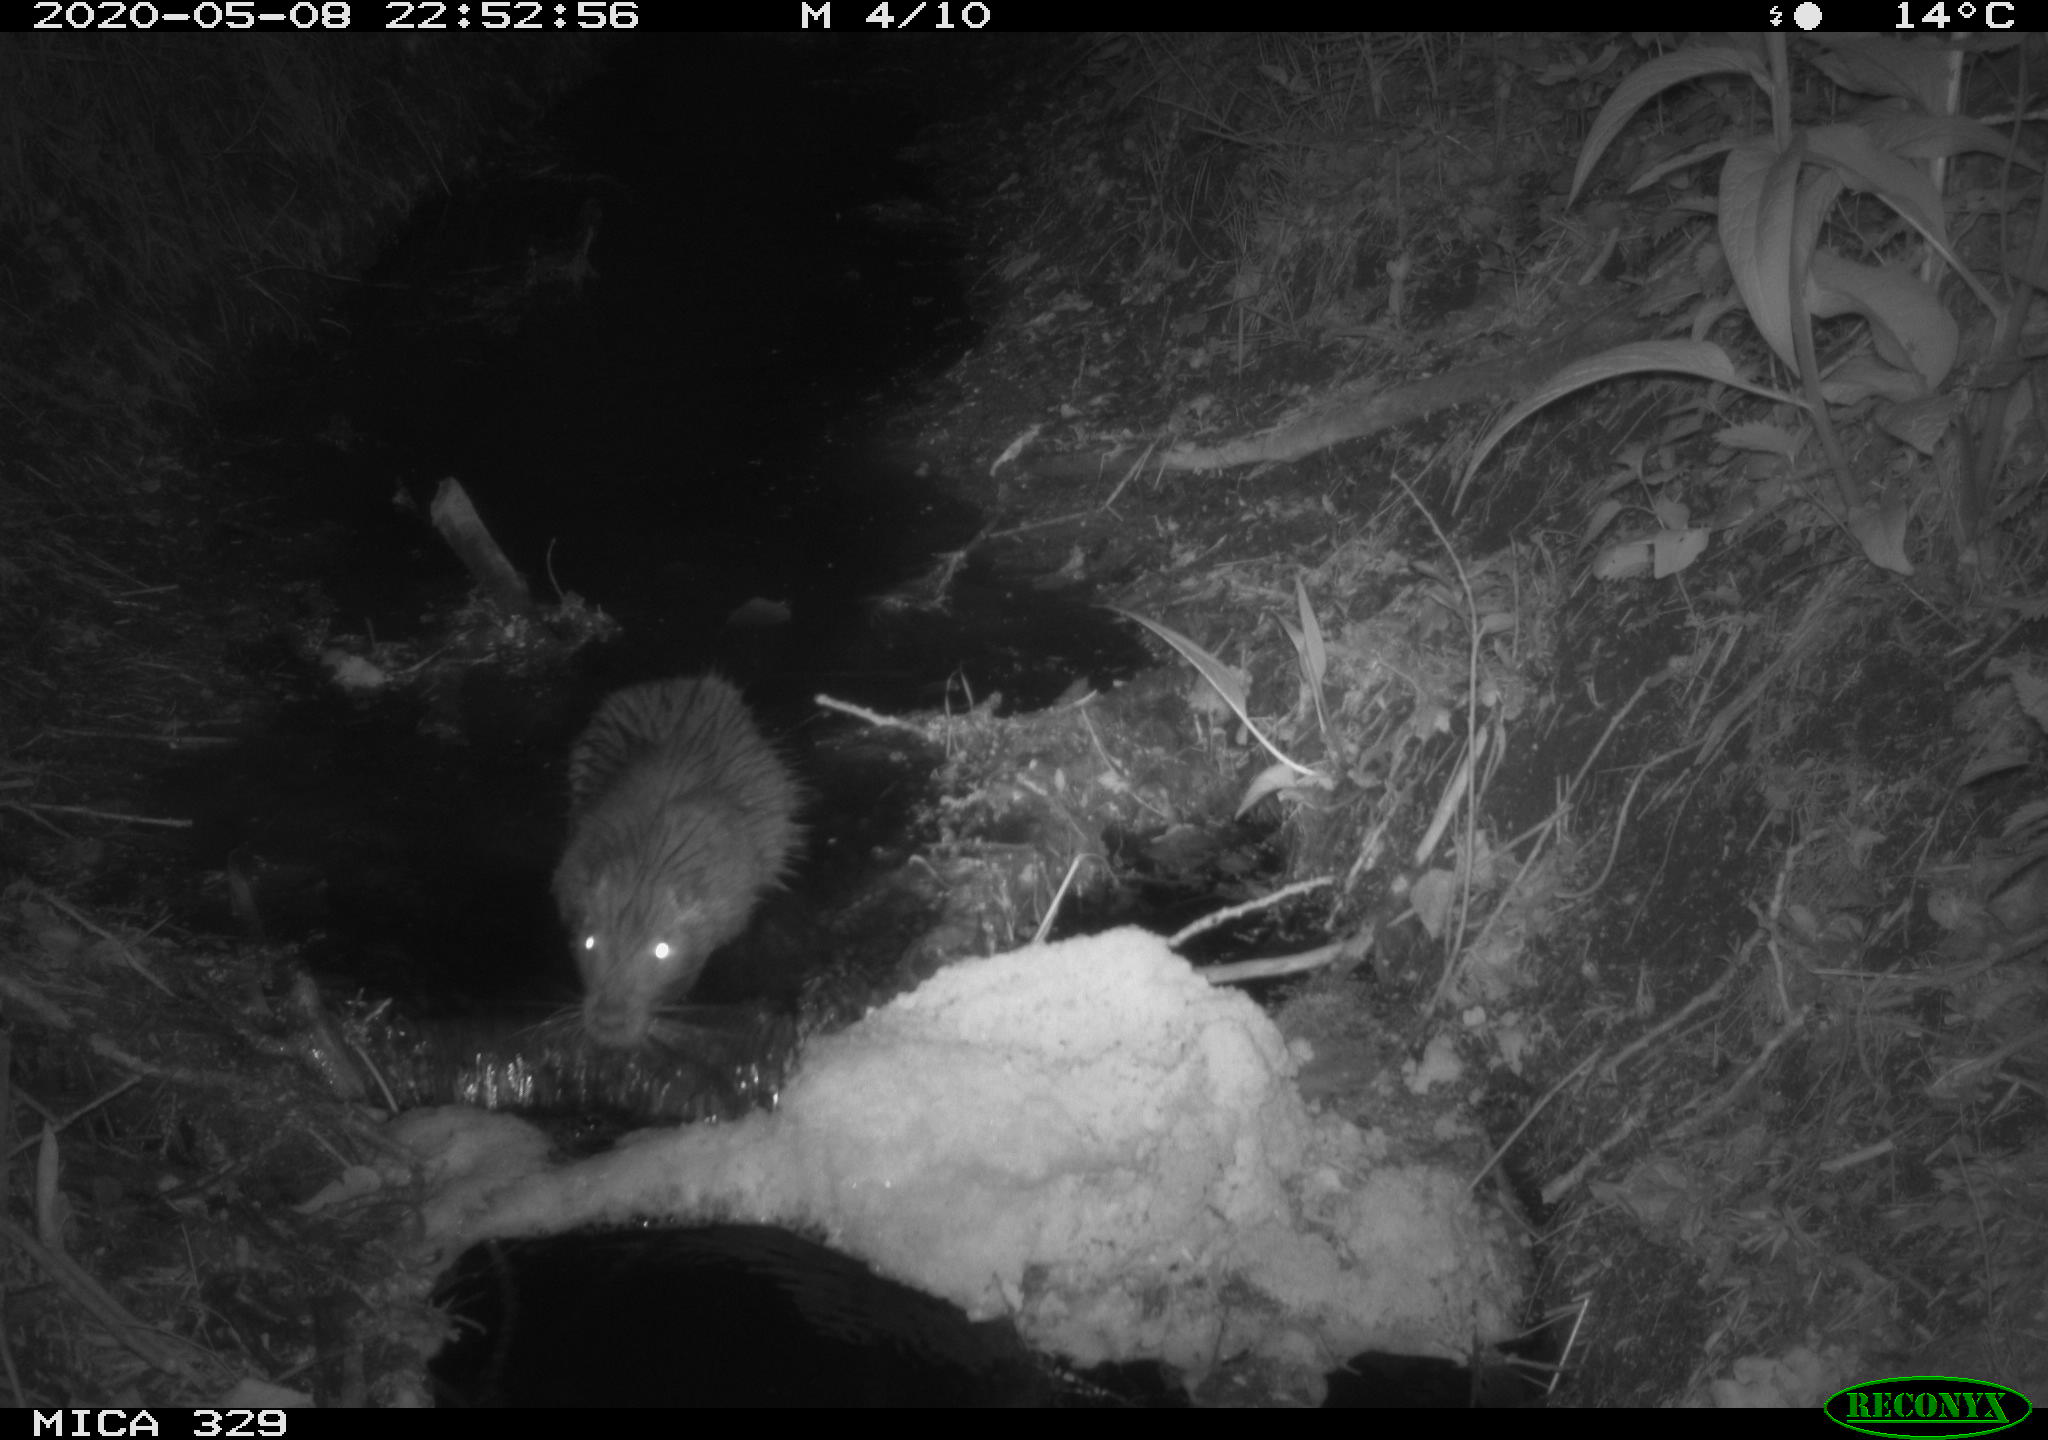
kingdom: Animalia
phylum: Chordata
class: Mammalia
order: Rodentia
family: Myocastoridae
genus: Myocastor
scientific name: Myocastor coypus
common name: Coypu
